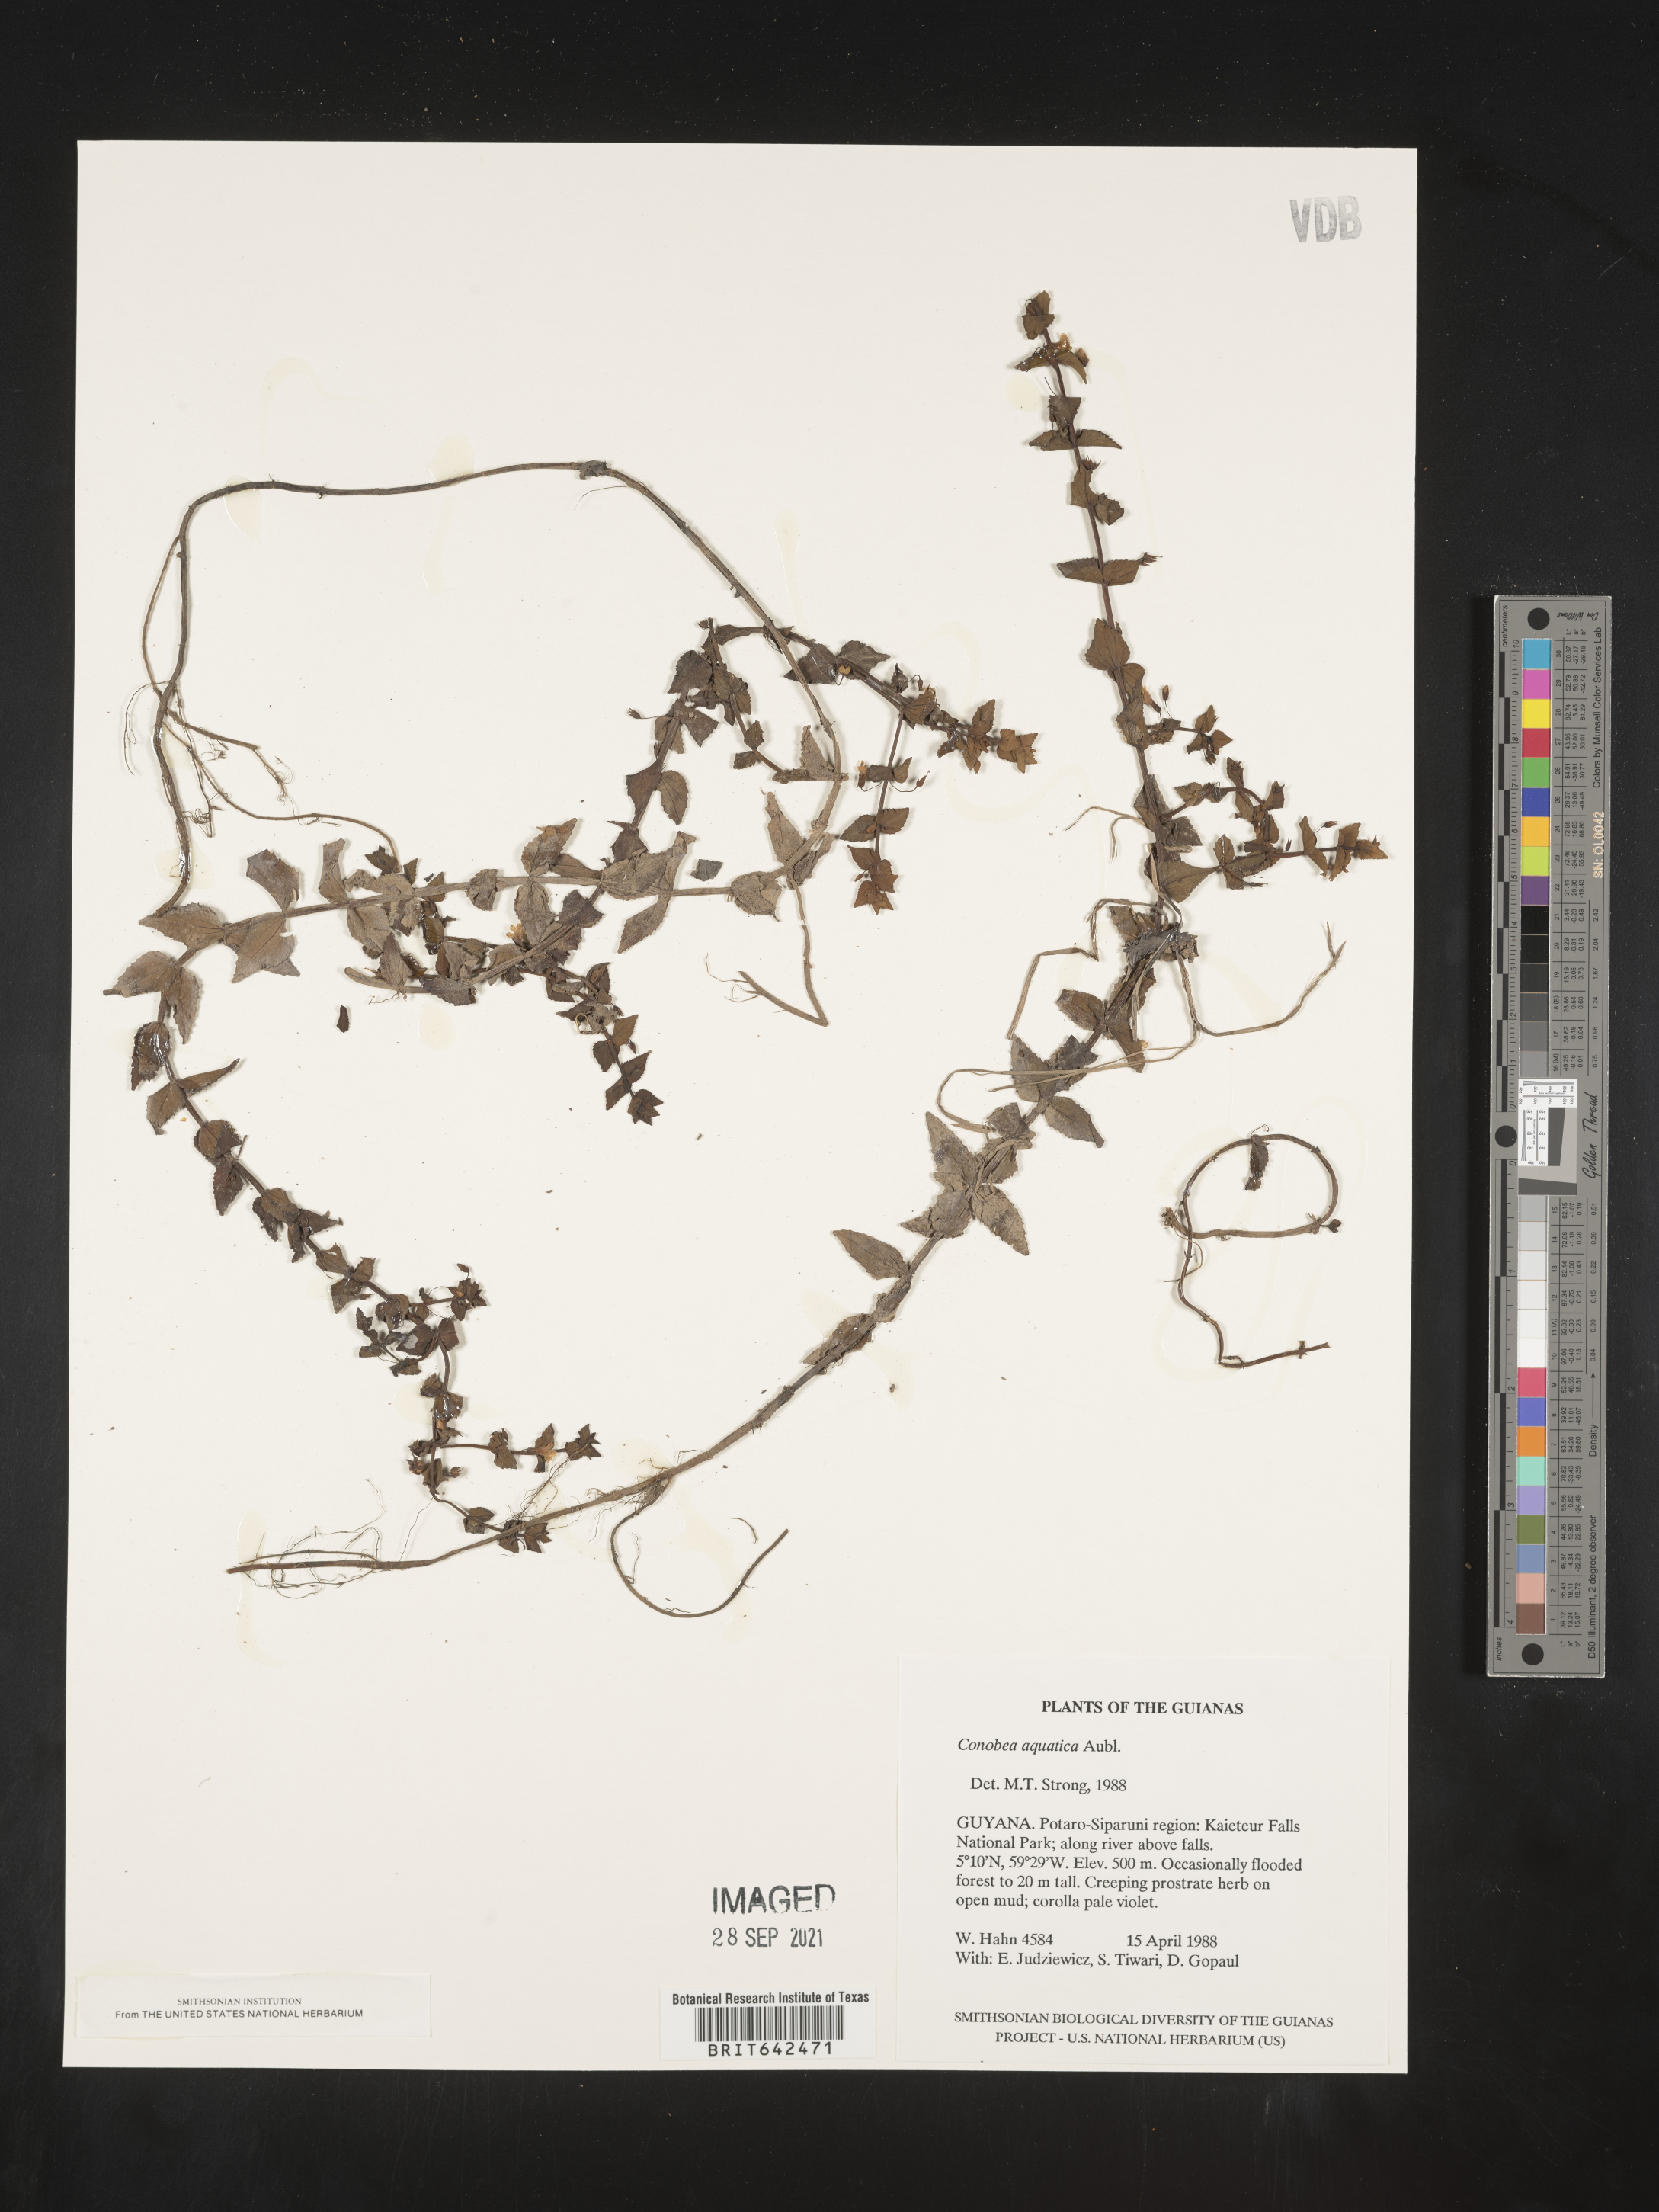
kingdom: Plantae
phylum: Tracheophyta
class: Magnoliopsida
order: Lamiales
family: Plantaginaceae
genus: Conobea
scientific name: Conobea
